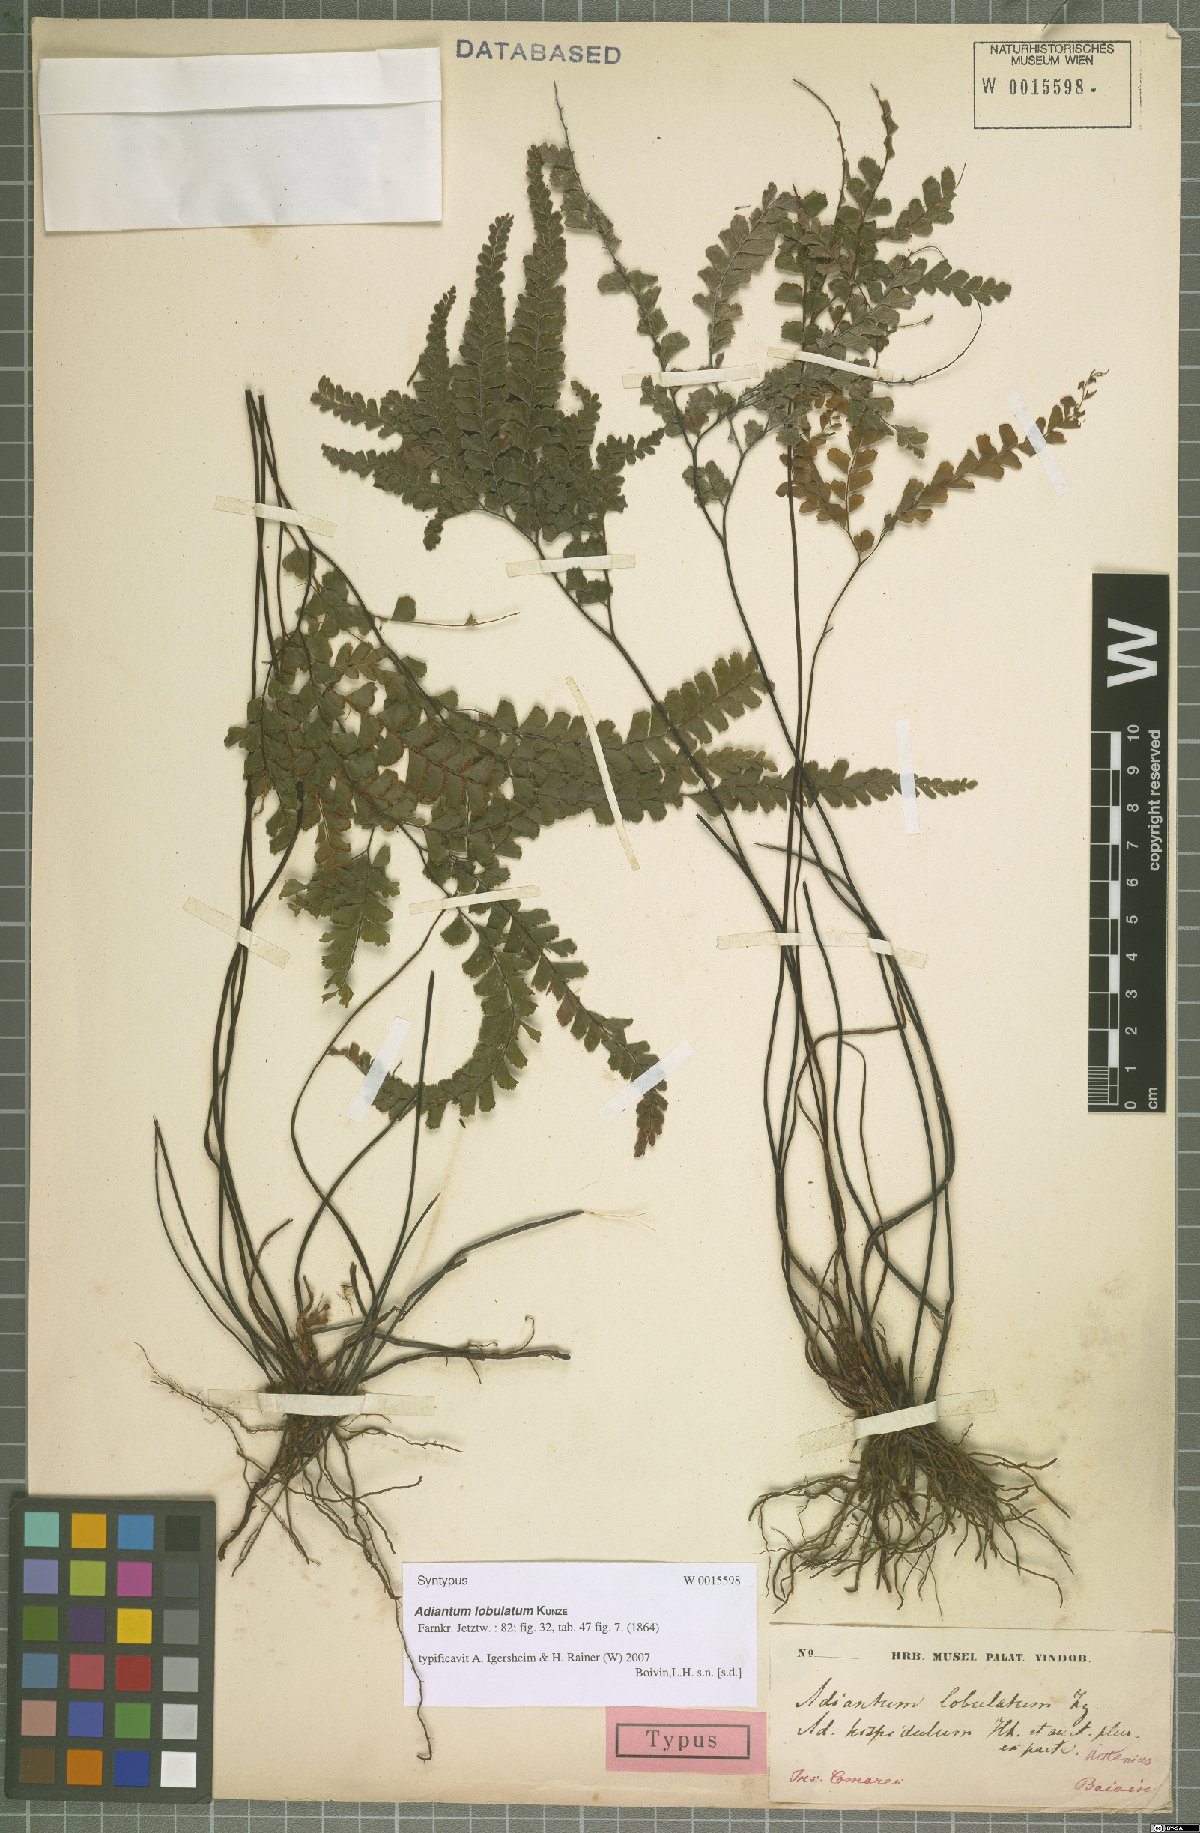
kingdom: Plantae
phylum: Tracheophyta
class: Polypodiopsida
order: Polypodiales
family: Pteridaceae
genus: Adiantum
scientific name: Adiantum hispidulum
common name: Rough maidenhair
